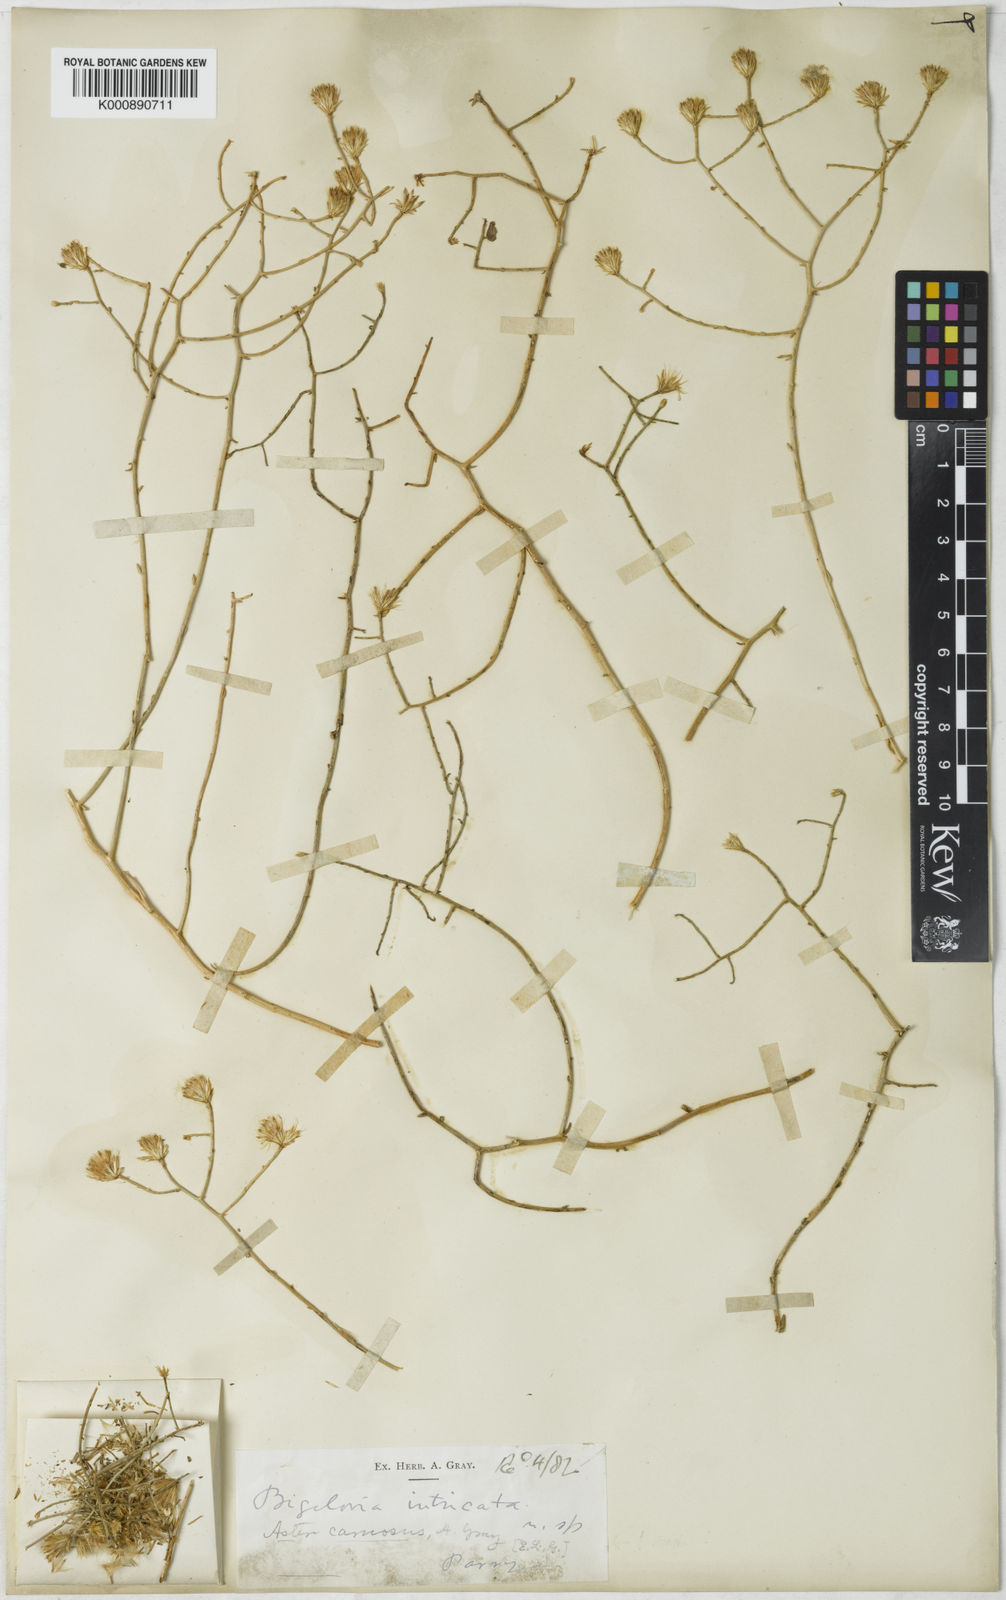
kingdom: Plantae
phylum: Tracheophyta
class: Magnoliopsida
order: Asterales
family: Asteraceae
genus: Aster
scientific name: Aster
